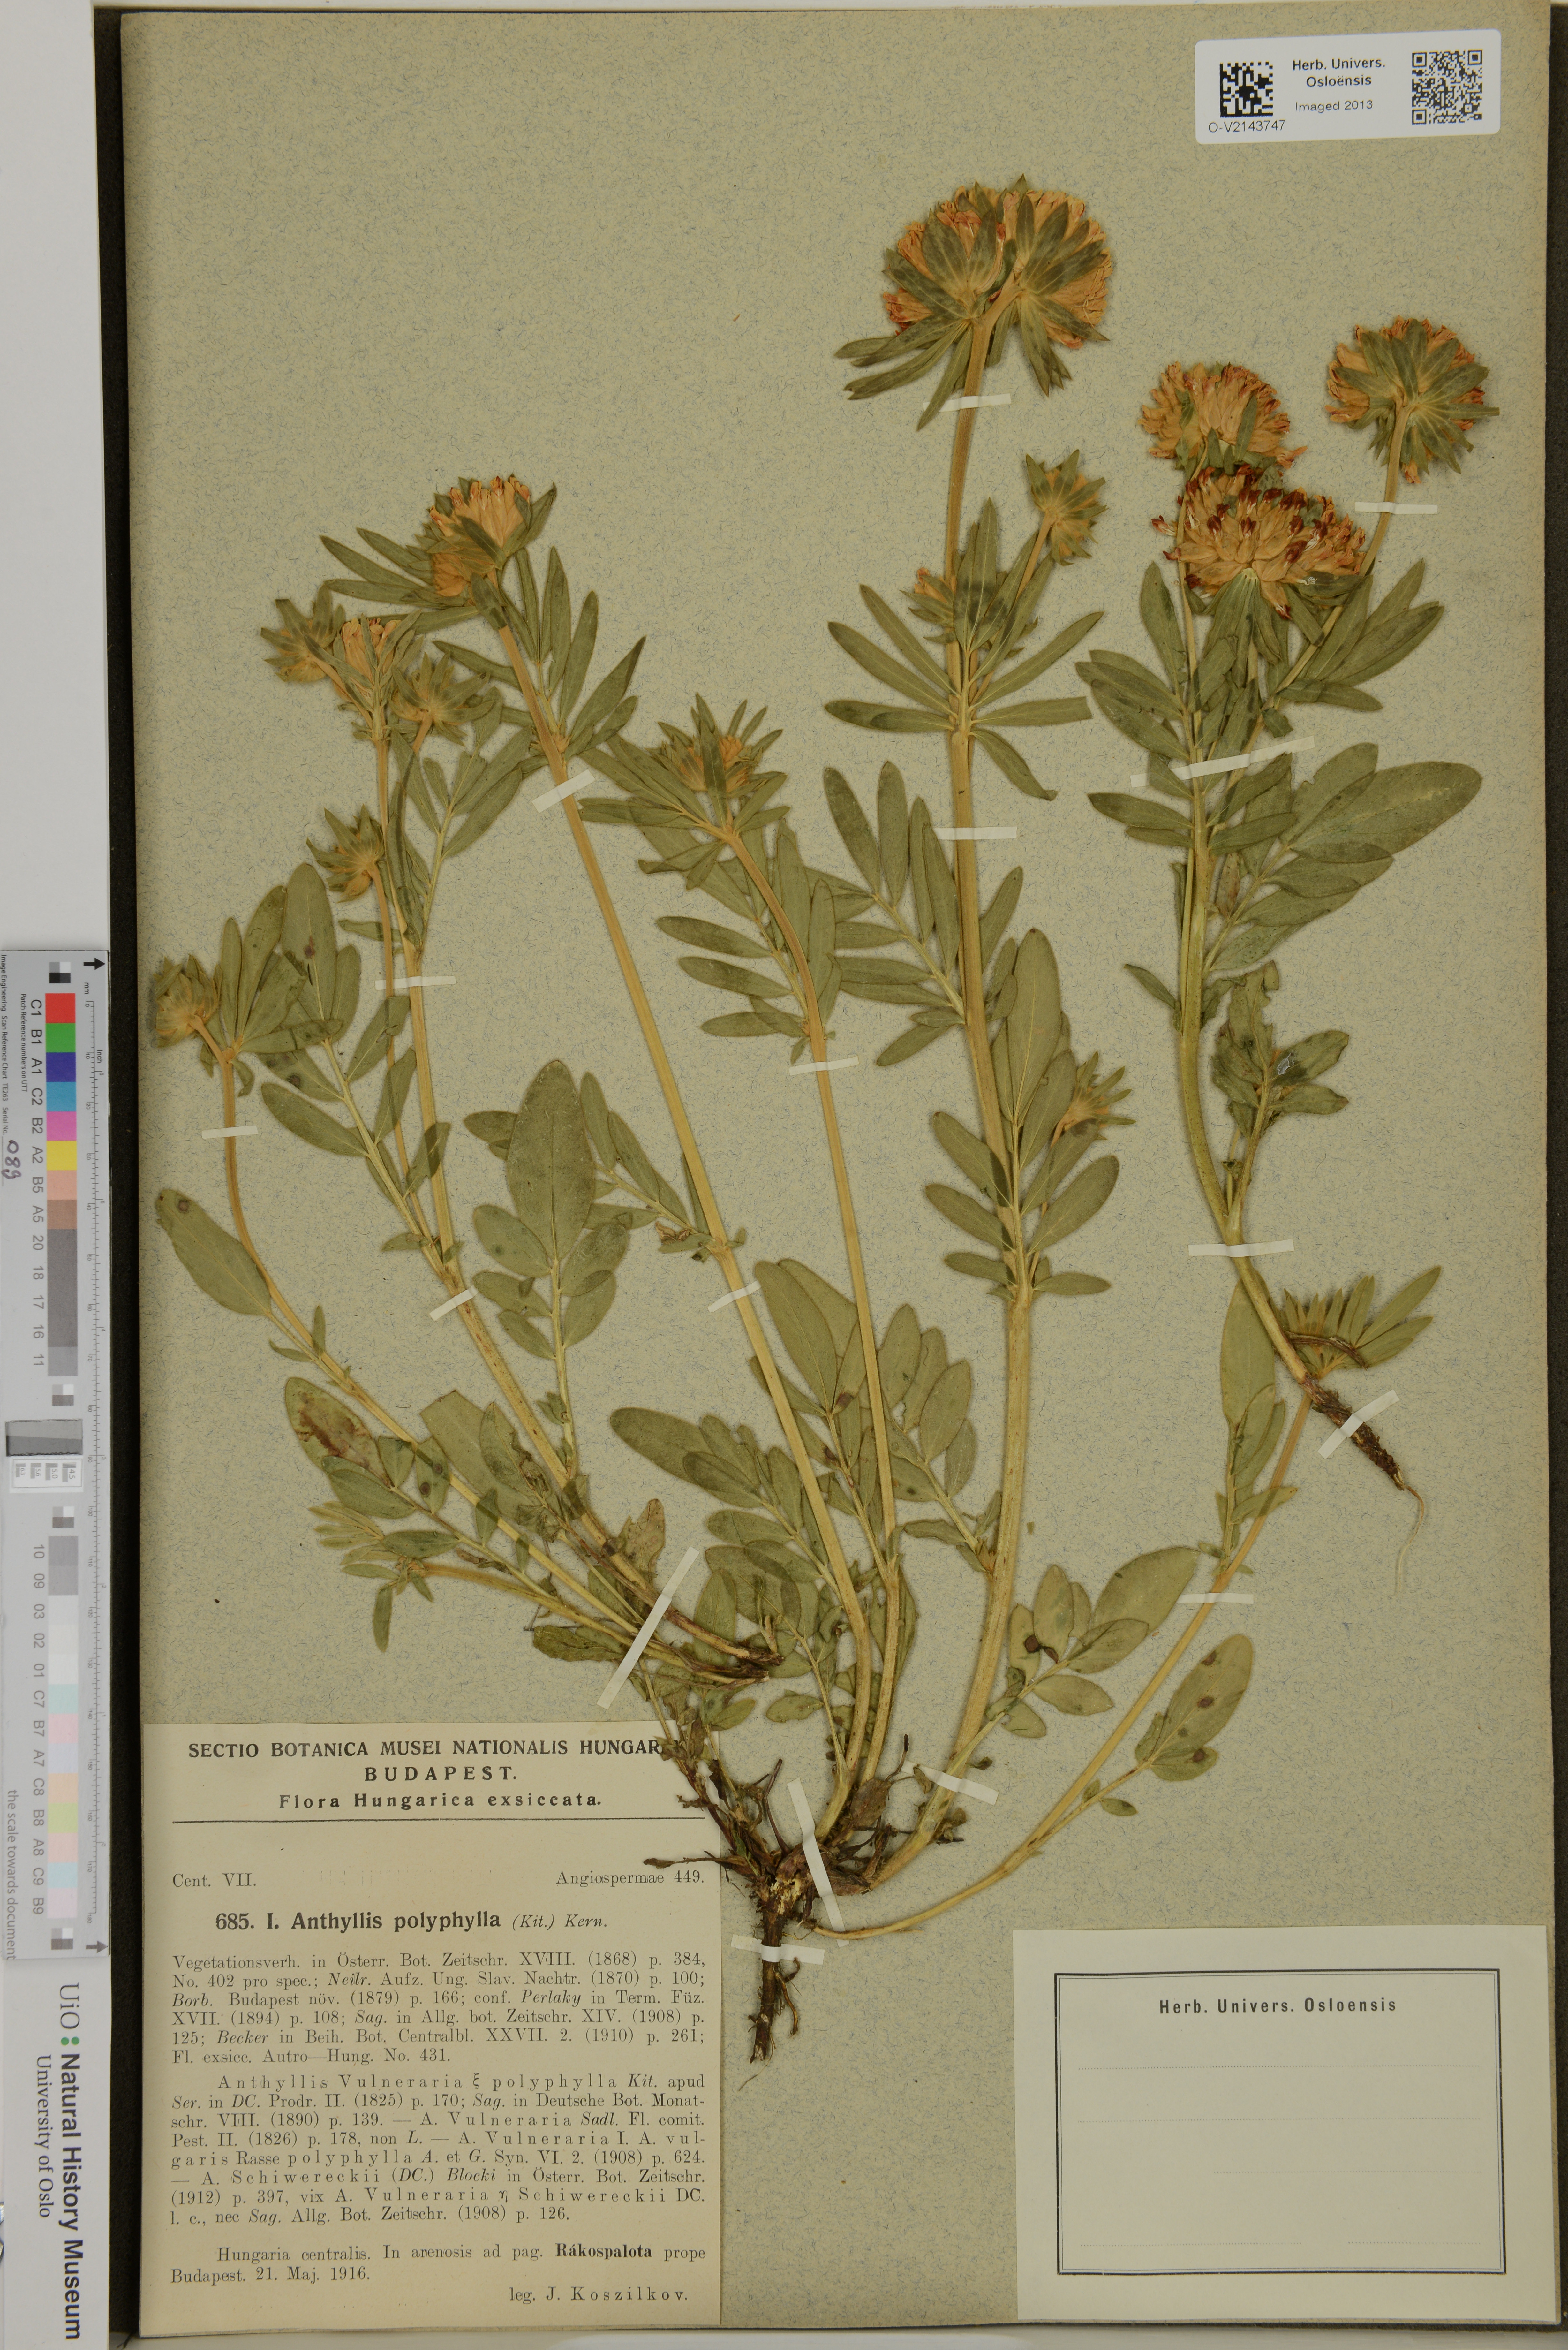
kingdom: Plantae
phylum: Tracheophyta
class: Magnoliopsida
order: Fabales
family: Fabaceae
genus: Anthyllis
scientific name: Anthyllis vulneraria
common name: Kidney vetch
